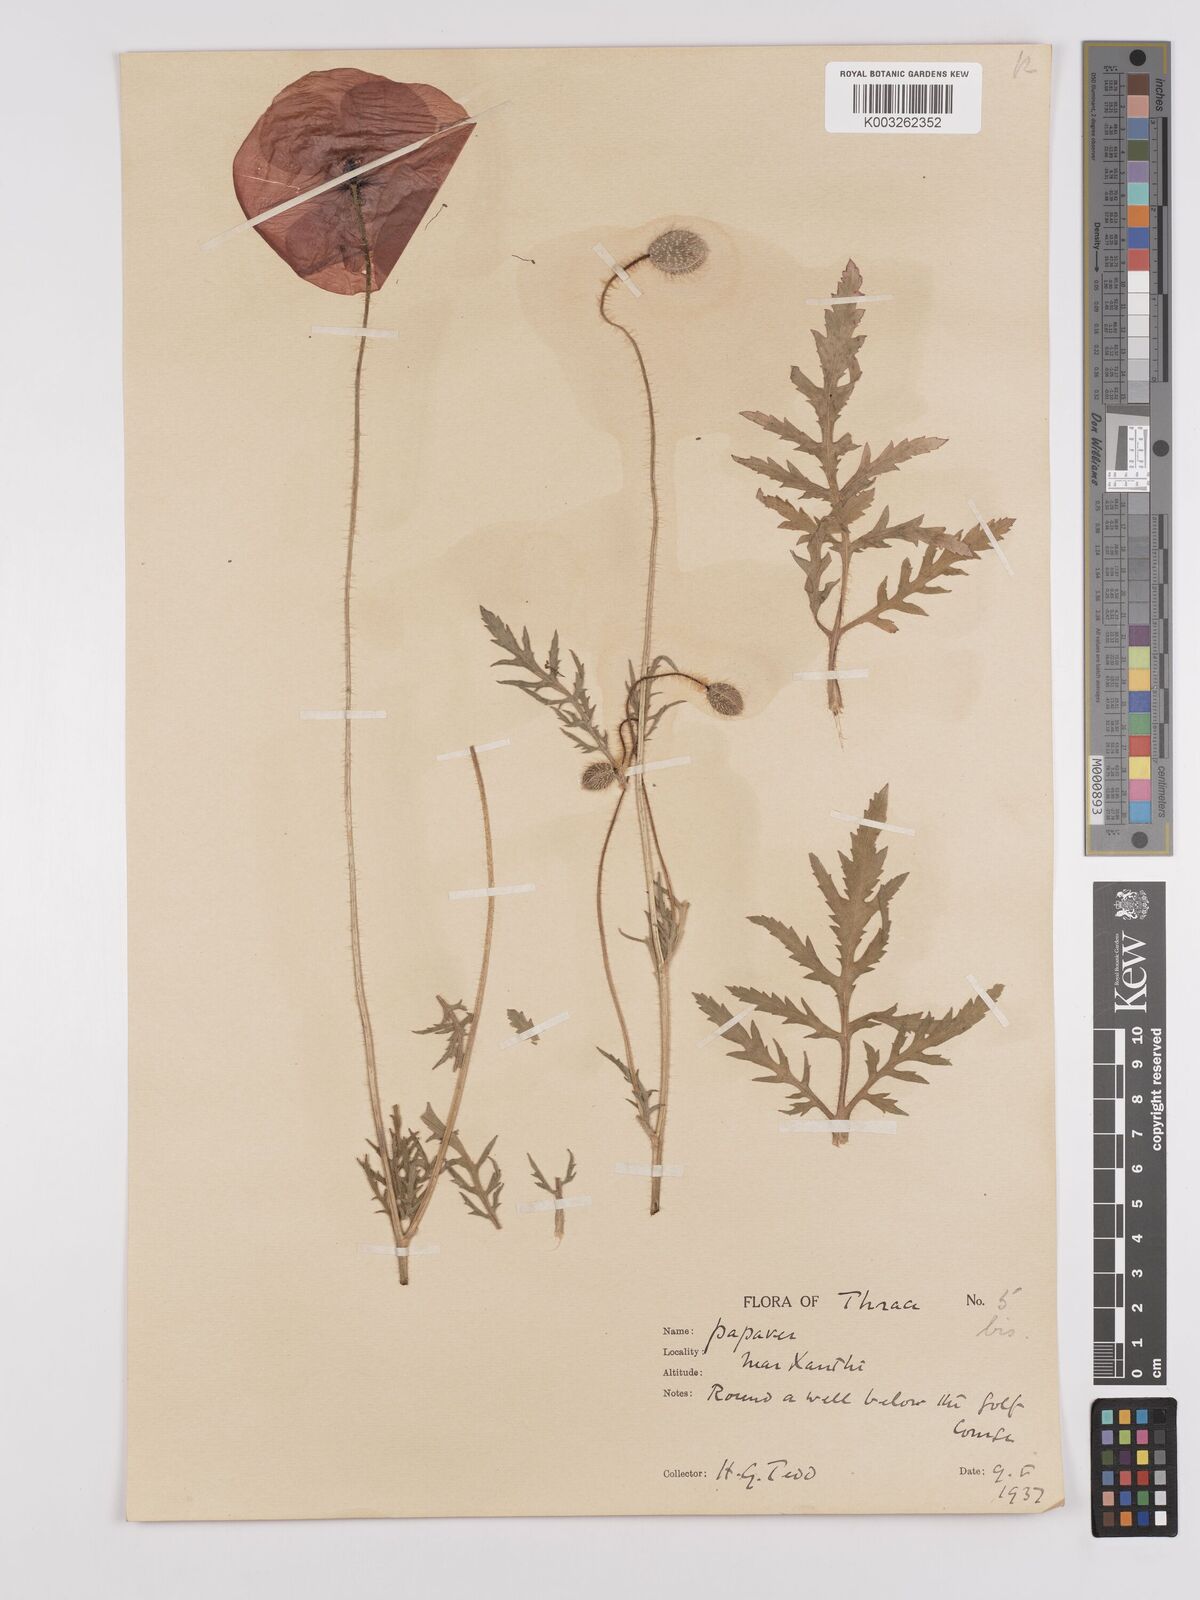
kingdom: Plantae
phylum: Tracheophyta
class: Magnoliopsida
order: Ranunculales
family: Papaveraceae
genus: Papaver
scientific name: Papaver rhoeas
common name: Corn poppy
